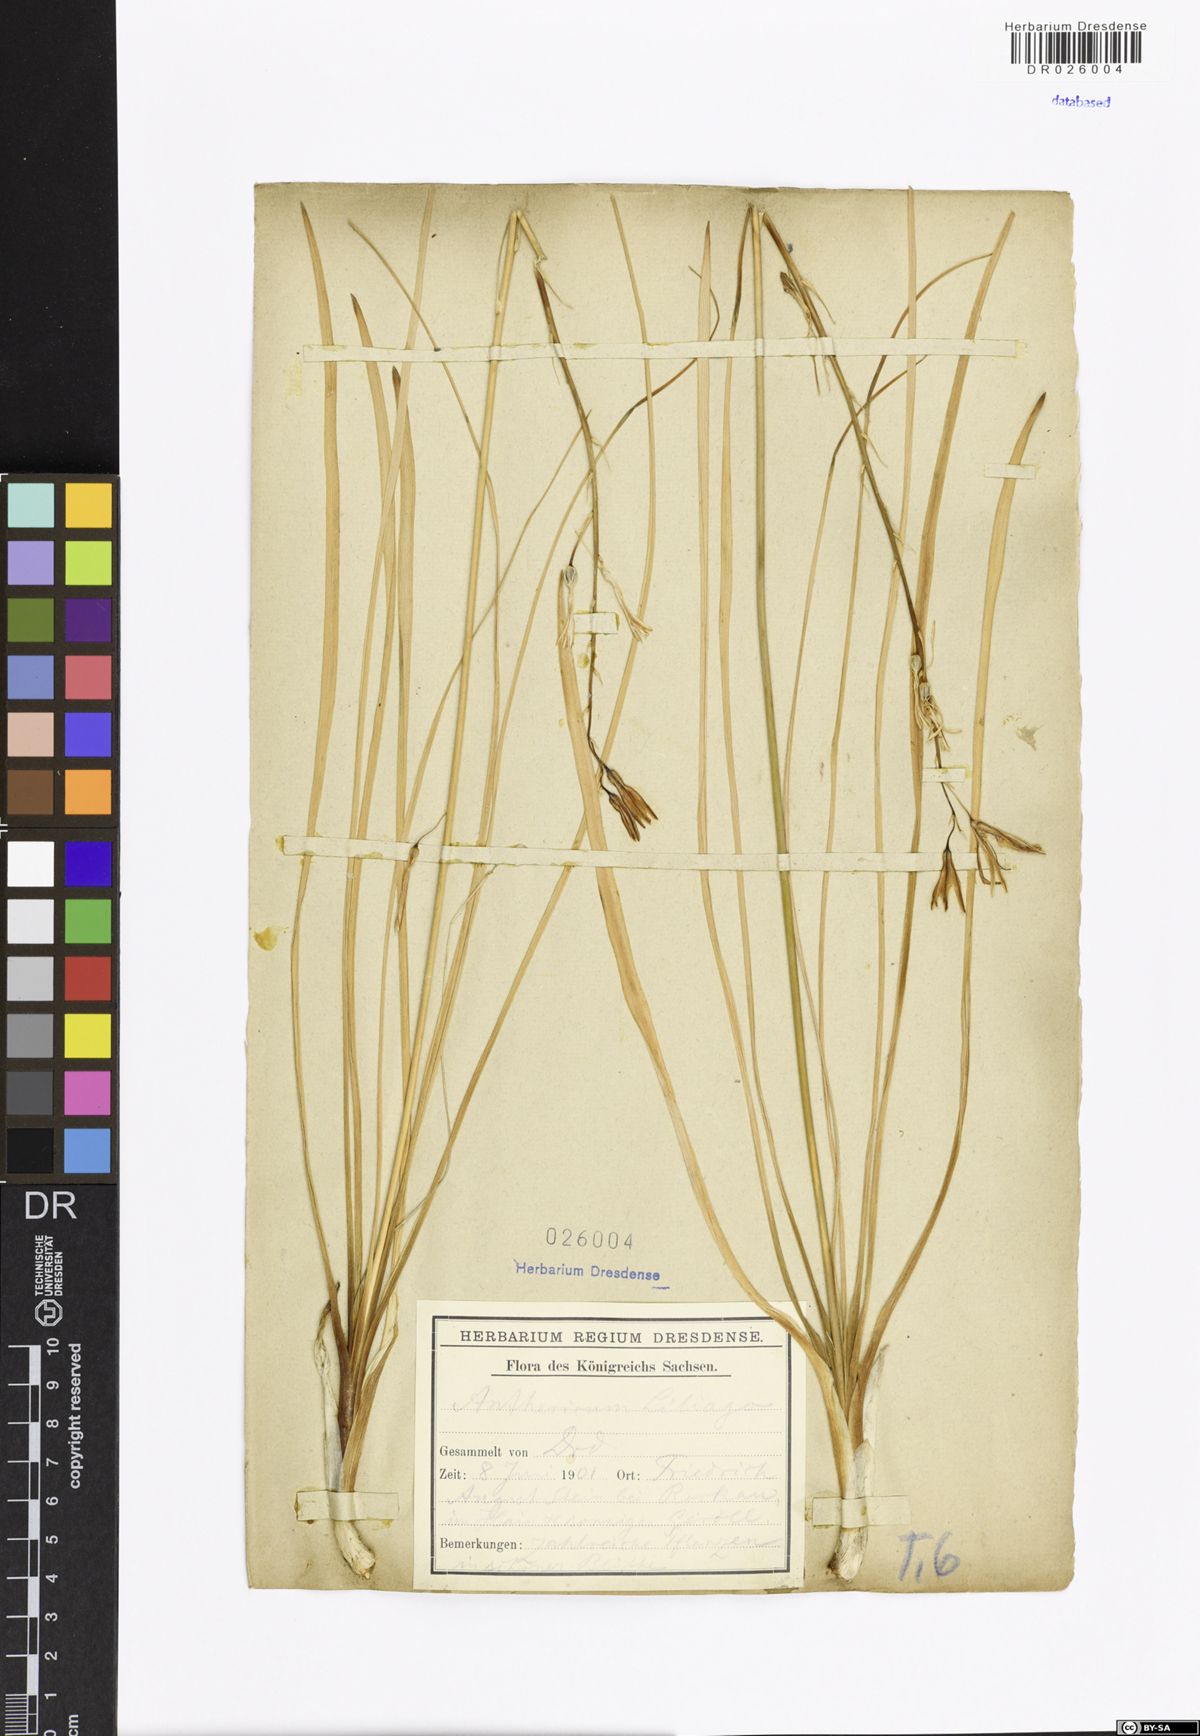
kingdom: Plantae
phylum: Tracheophyta
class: Liliopsida
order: Asparagales
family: Asparagaceae
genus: Anthericum
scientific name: Anthericum liliago
